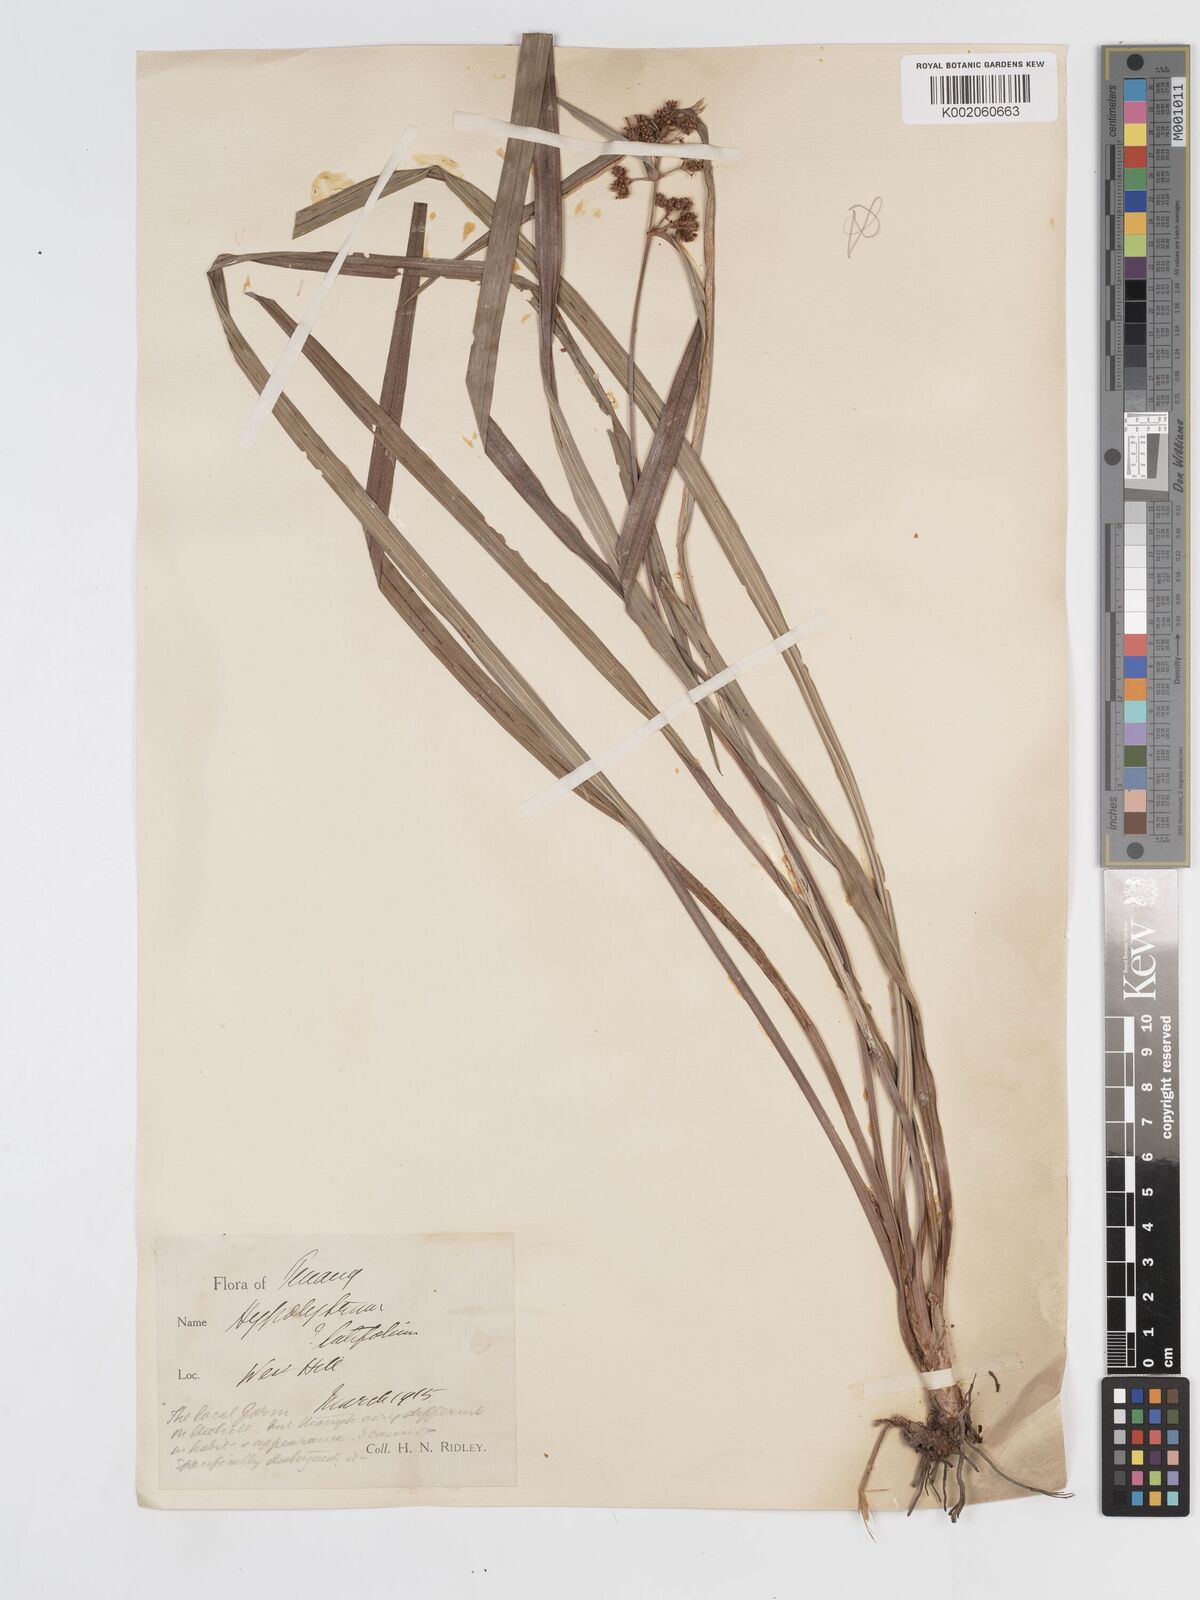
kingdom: Plantae
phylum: Tracheophyta
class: Liliopsida
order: Poales
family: Cyperaceae
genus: Hypolytrum
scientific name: Hypolytrum nemorum
